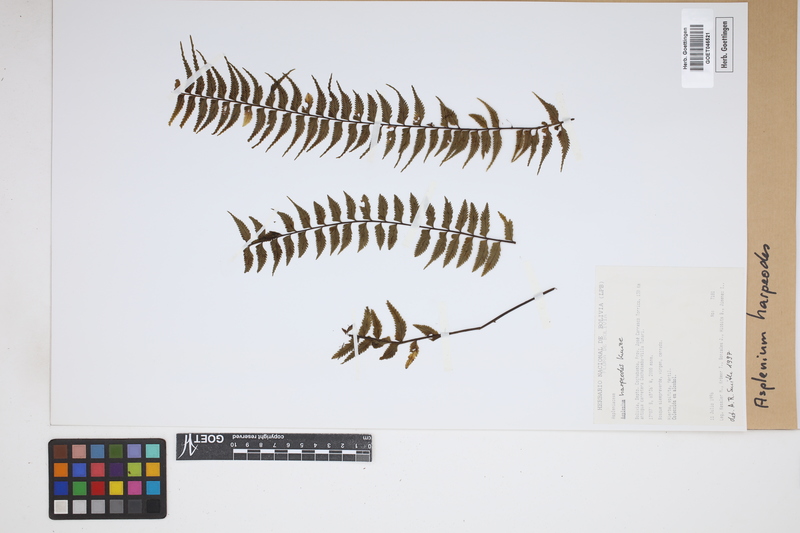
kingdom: Plantae
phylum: Tracheophyta
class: Polypodiopsida
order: Polypodiales
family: Aspleniaceae
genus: Asplenium
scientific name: Asplenium harpeodes
